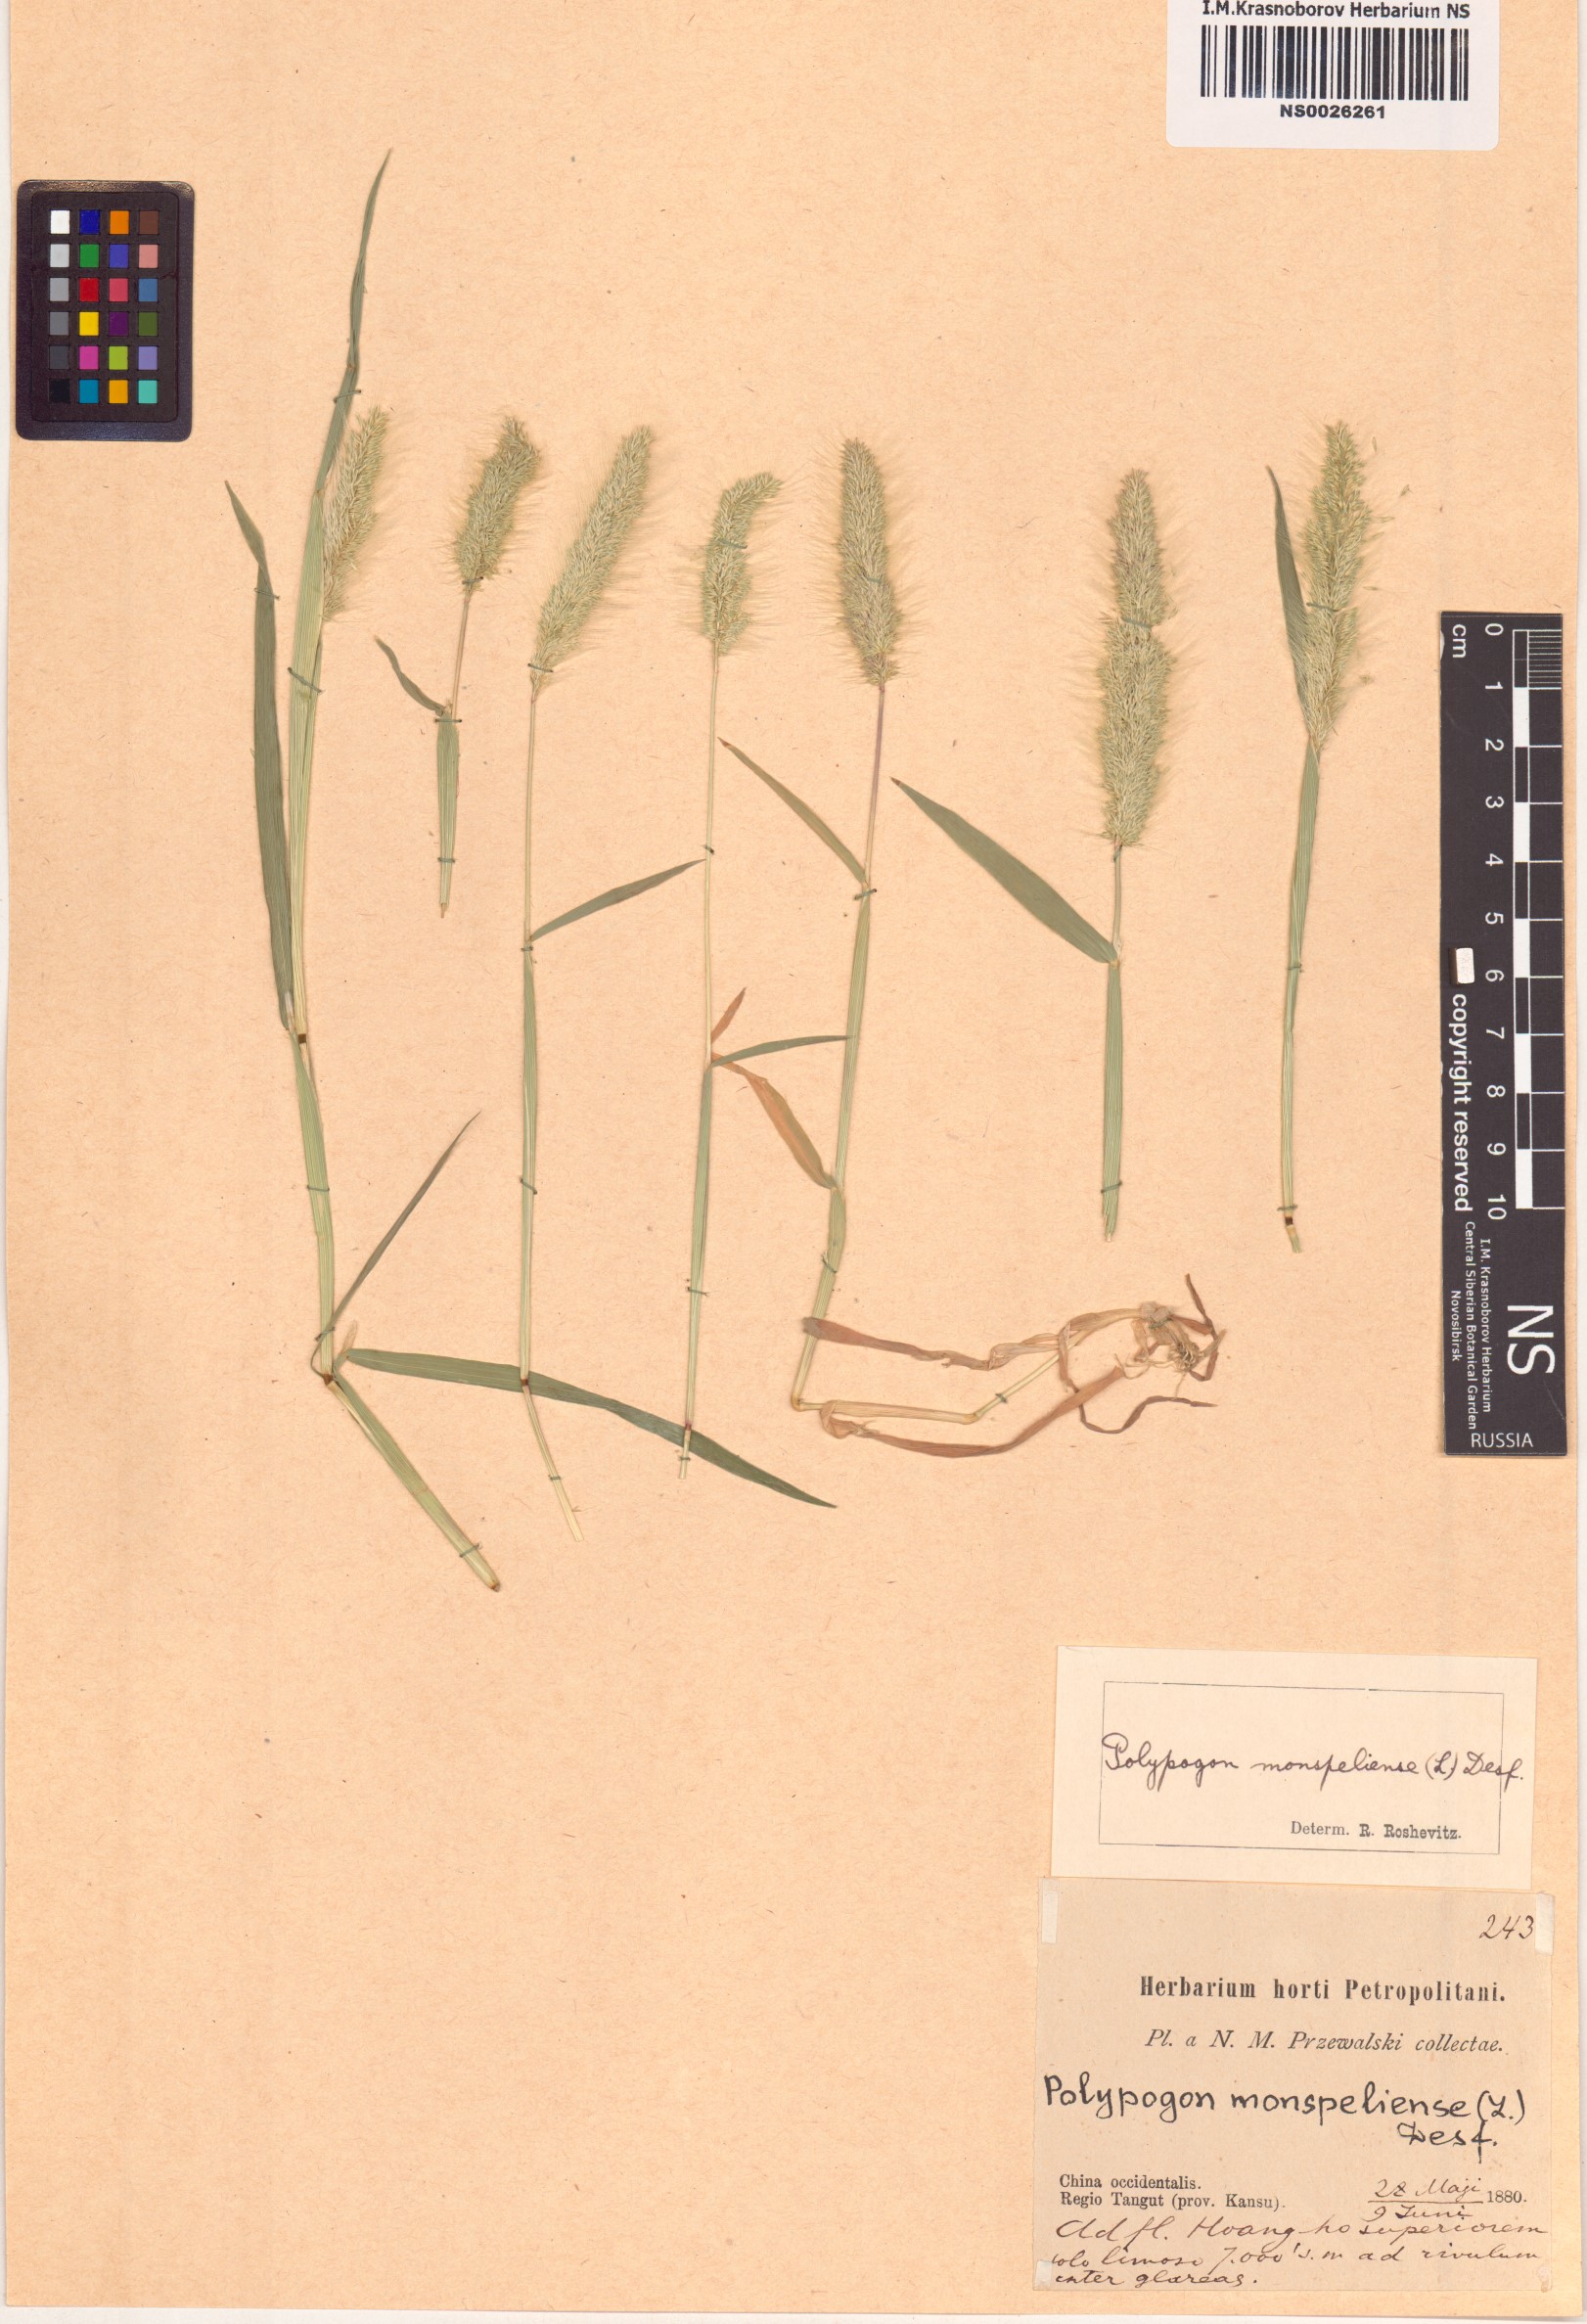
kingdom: Plantae
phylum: Tracheophyta
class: Liliopsida
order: Poales
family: Poaceae
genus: Polypogon
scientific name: Polypogon monspeliensis
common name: Annual rabbitsfoot grass
